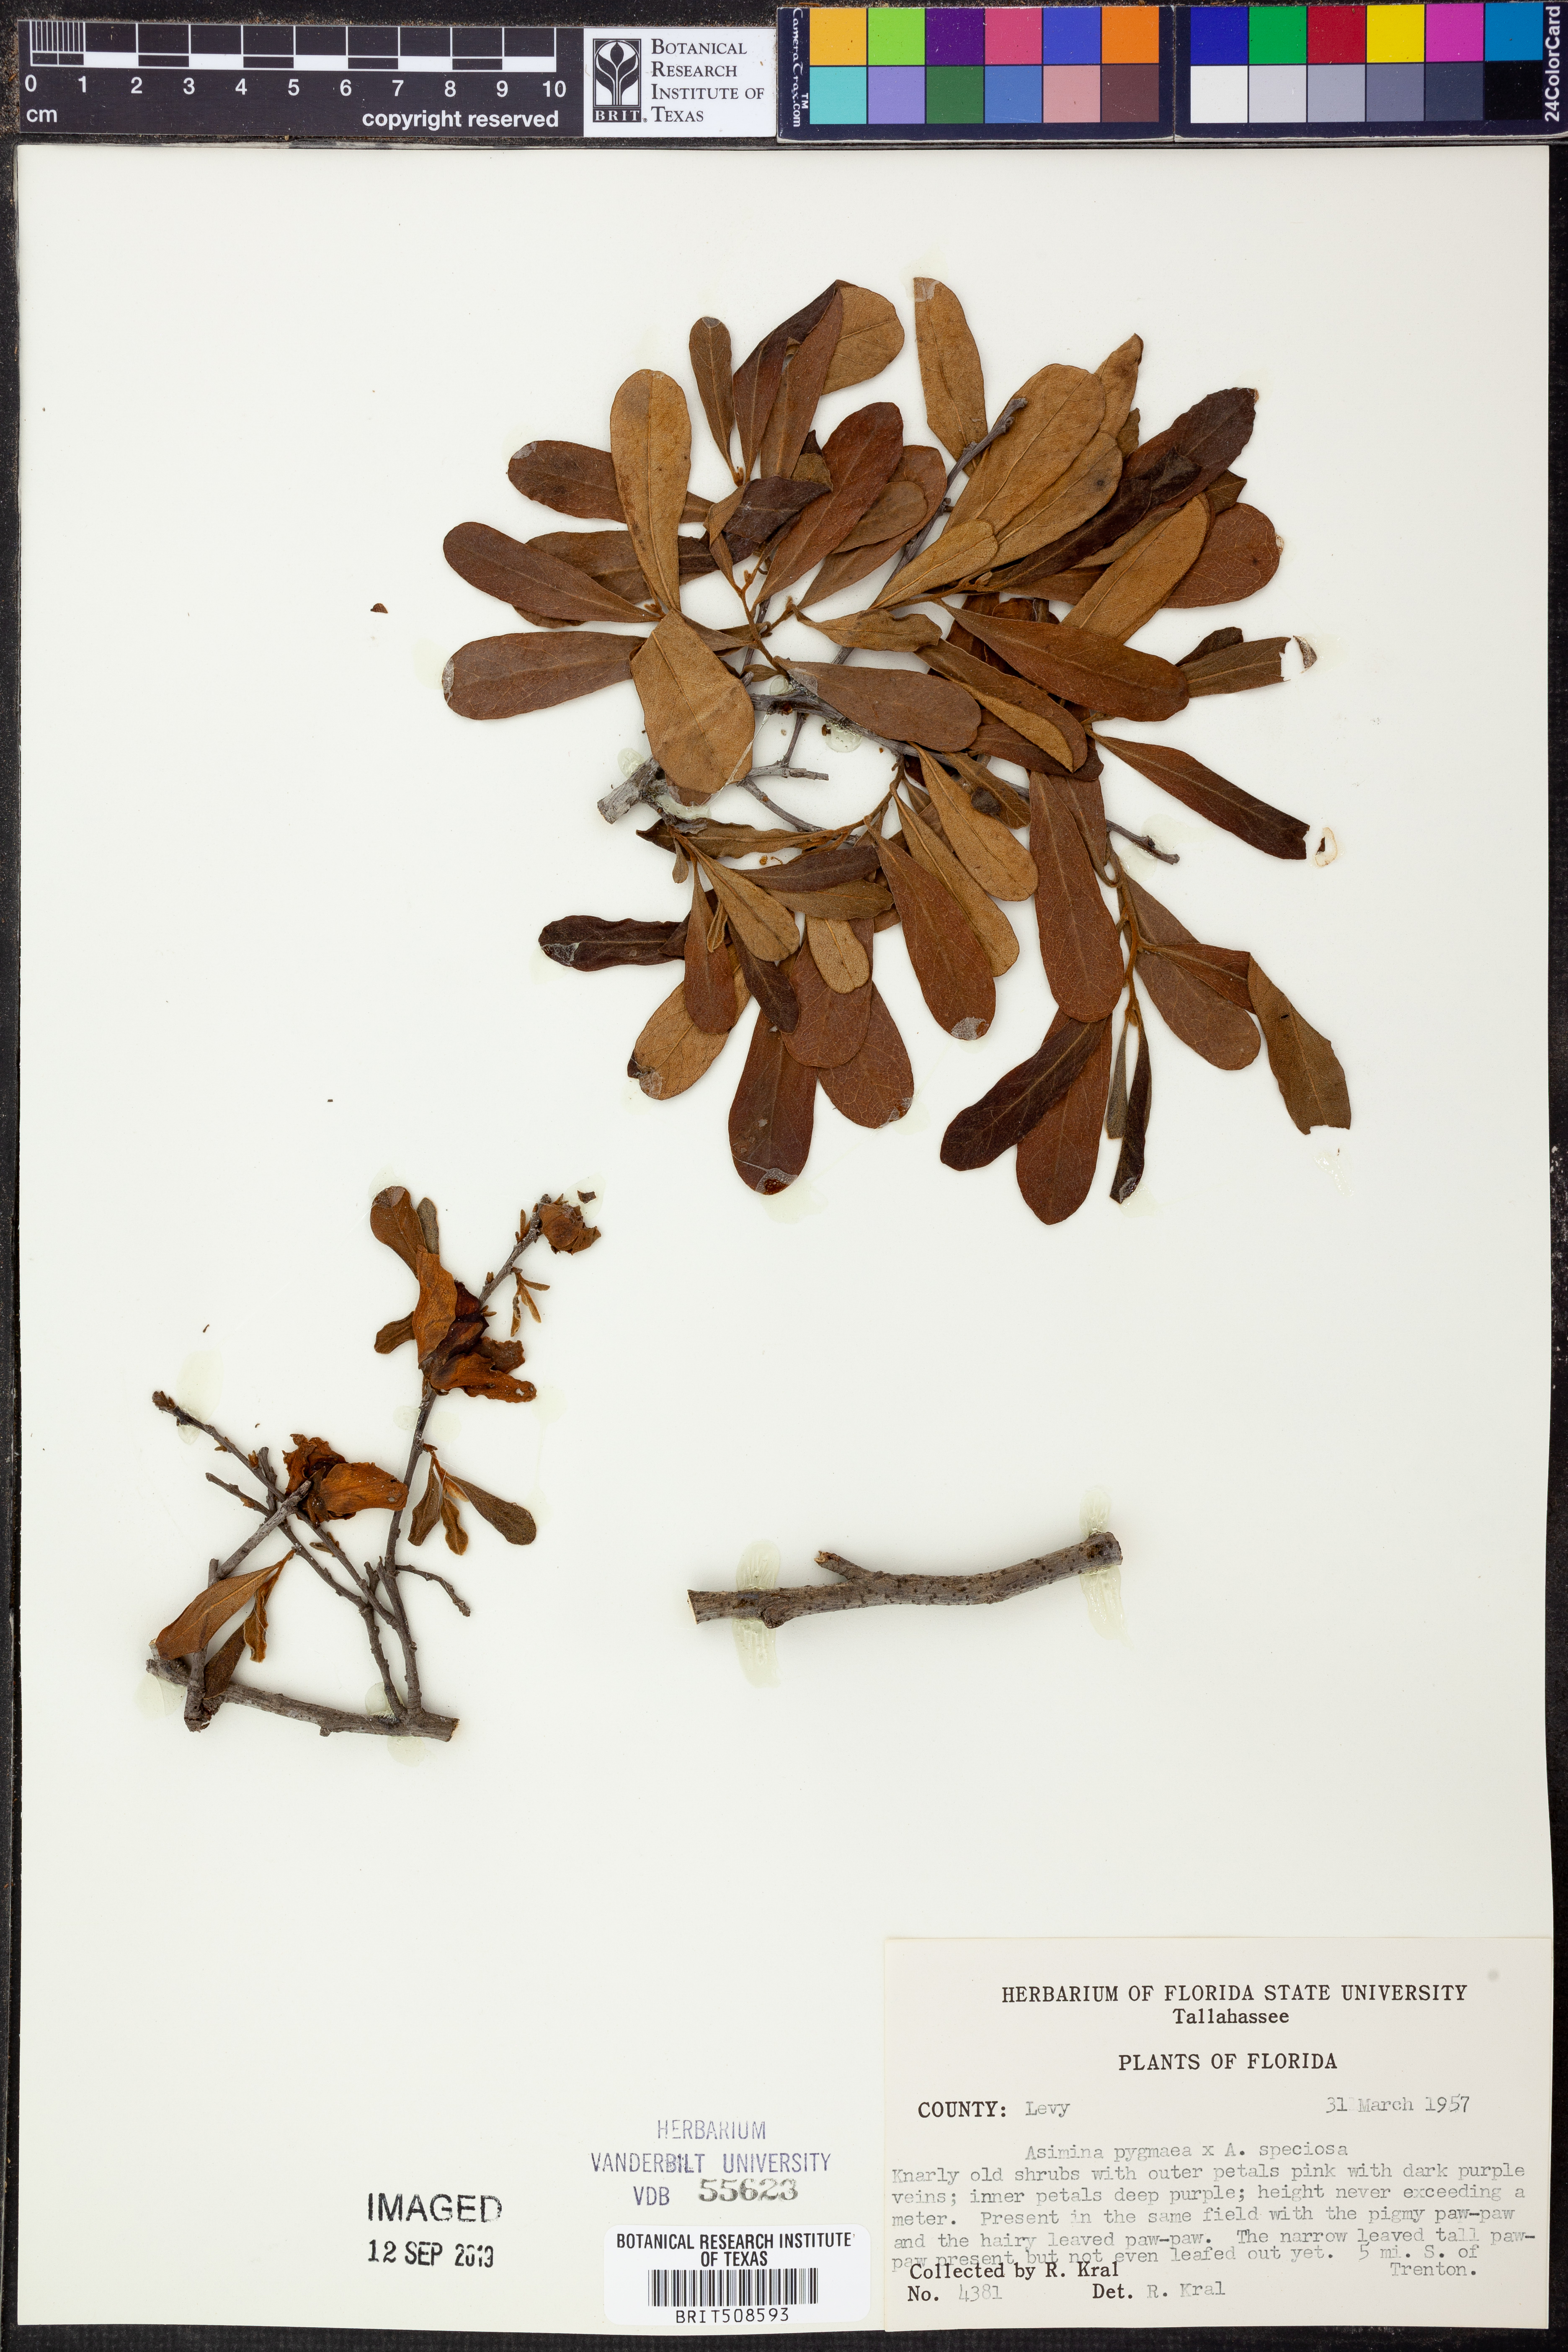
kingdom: Plantae
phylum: Tracheophyta
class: Magnoliopsida
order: Magnoliales
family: Annonaceae
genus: Asimina
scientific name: Asimina pygmaea
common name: Dwarf pawpaw
